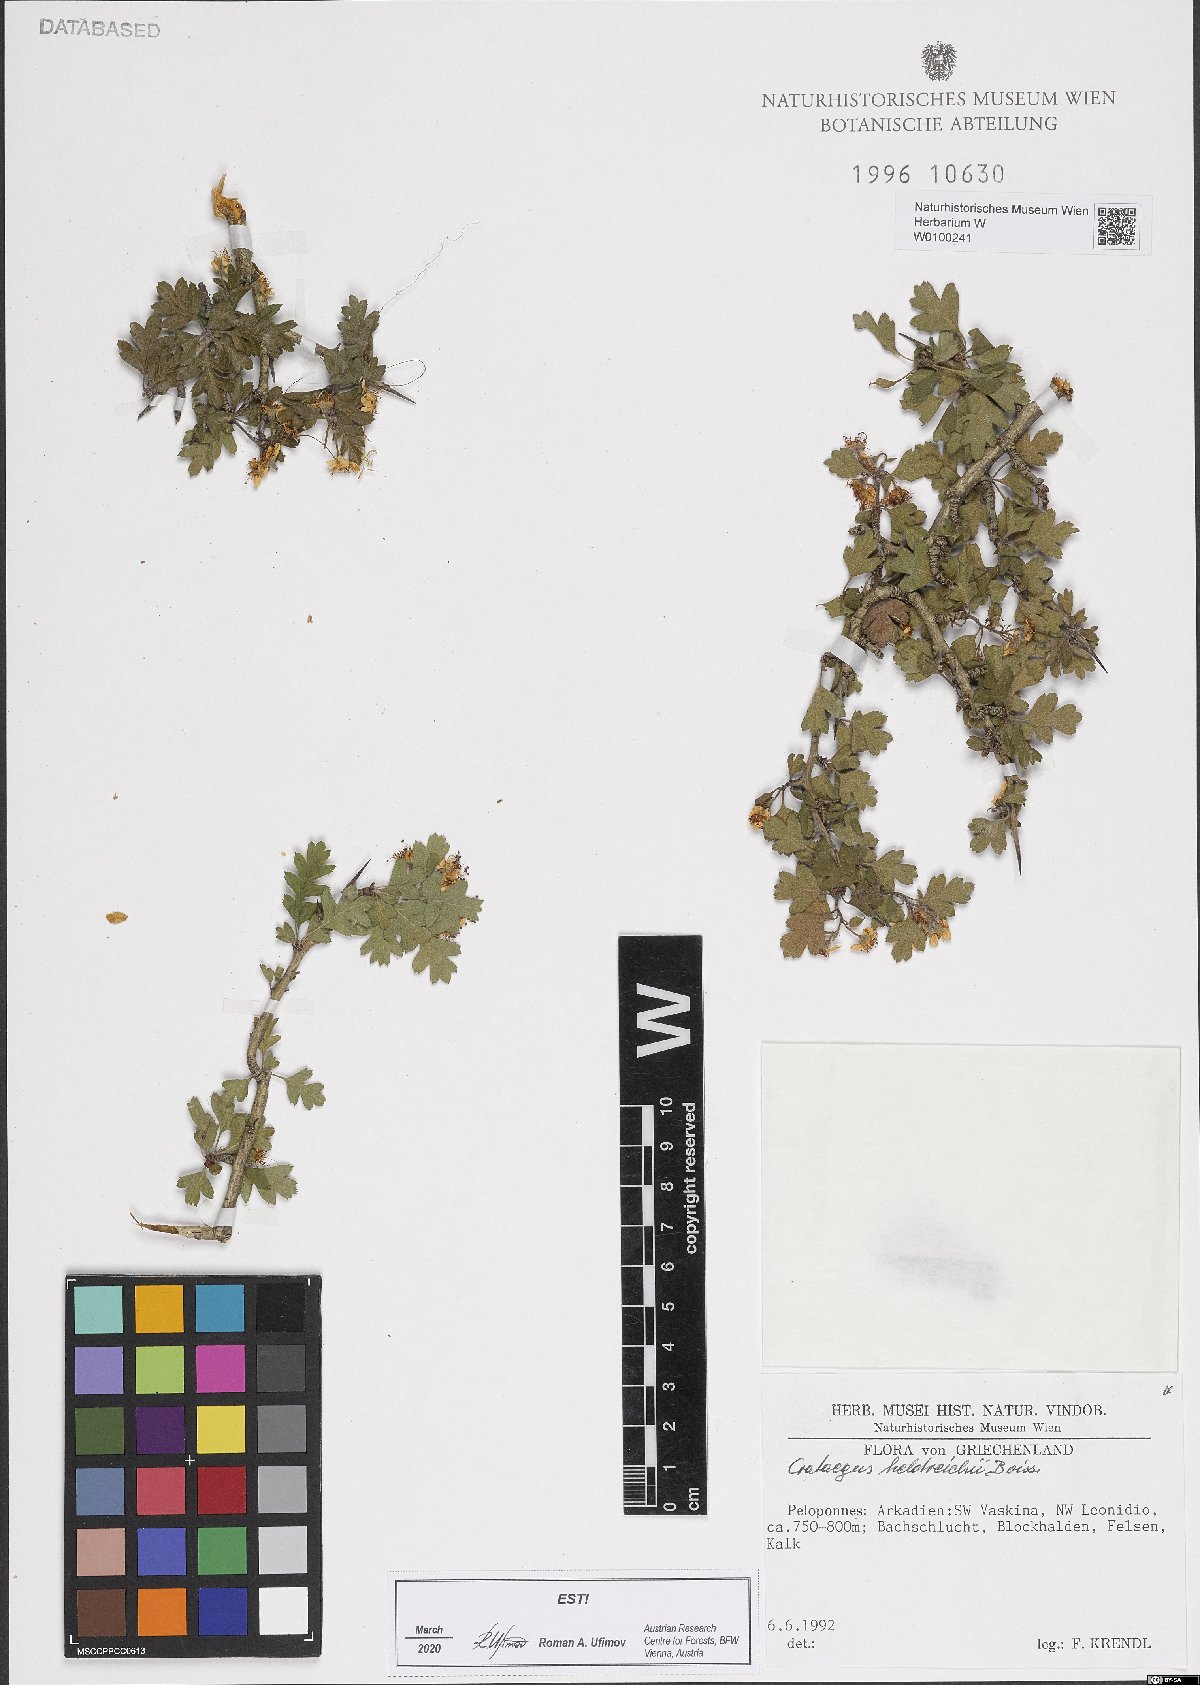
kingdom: Plantae
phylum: Tracheophyta
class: Magnoliopsida
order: Rosales
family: Rosaceae
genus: Crataegus
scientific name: Crataegus heldreichii
